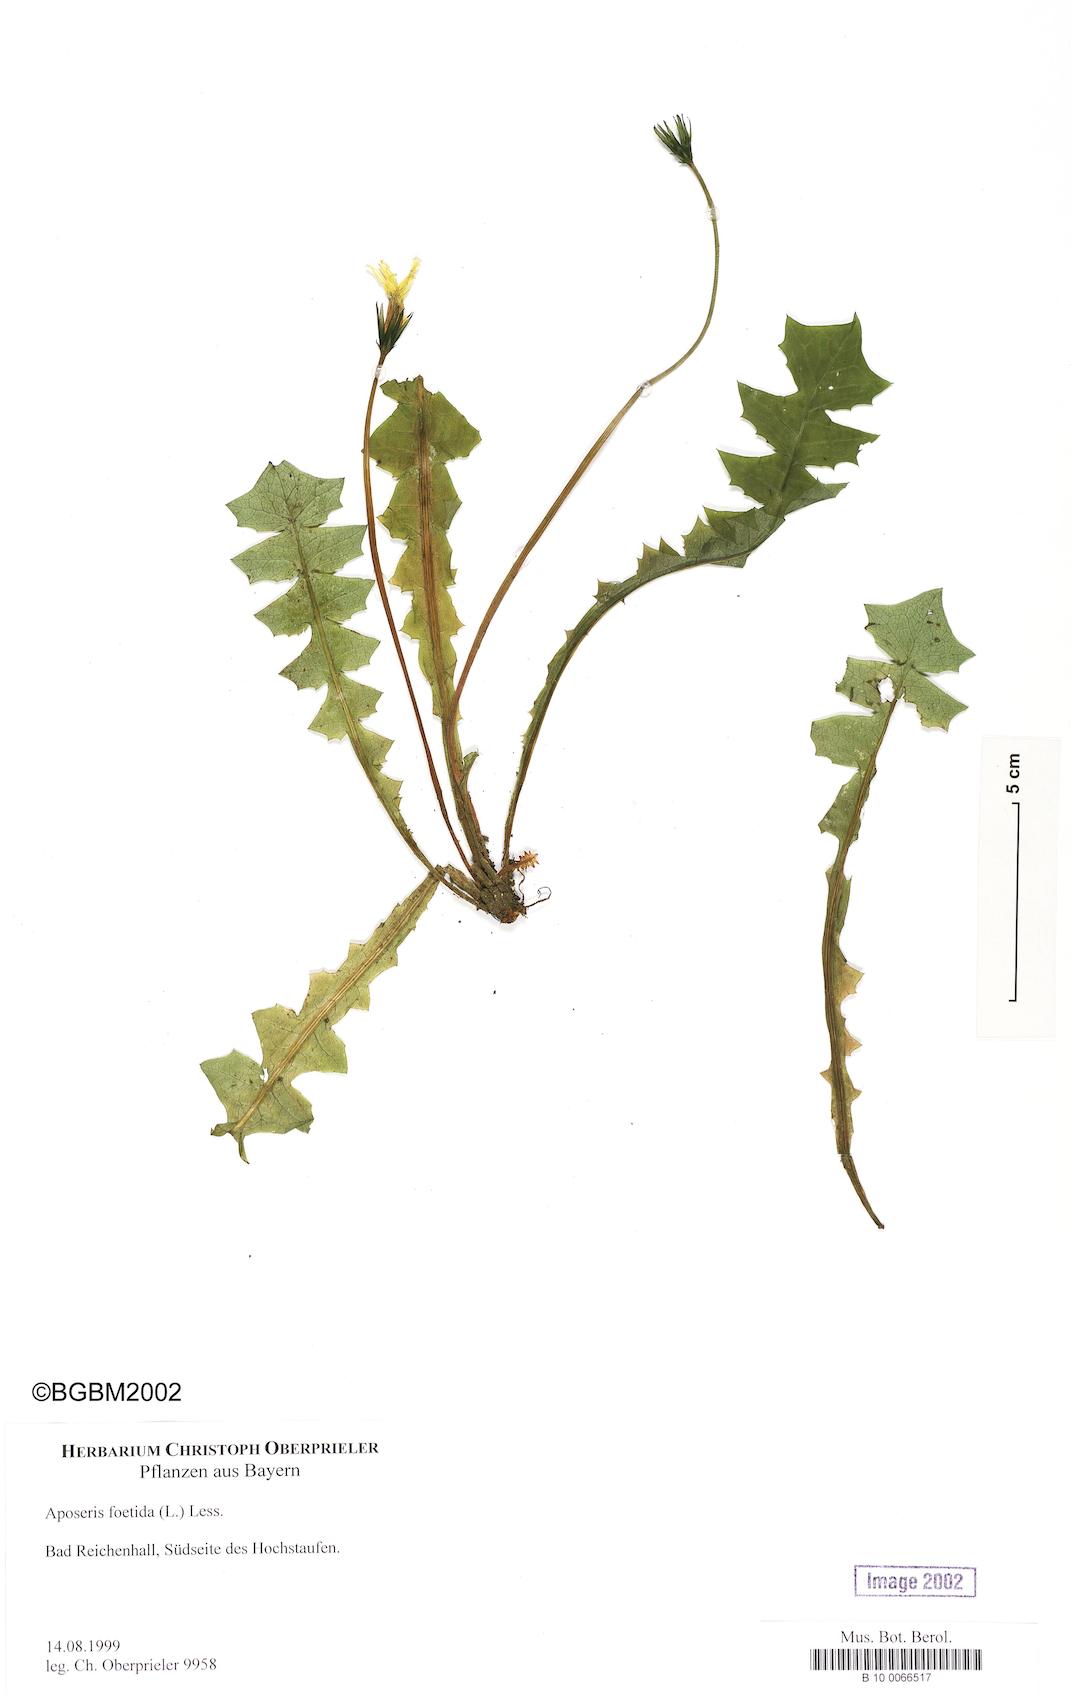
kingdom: Plantae
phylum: Tracheophyta
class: Magnoliopsida
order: Asterales
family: Asteraceae
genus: Aposeris
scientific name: Aposeris foetida
